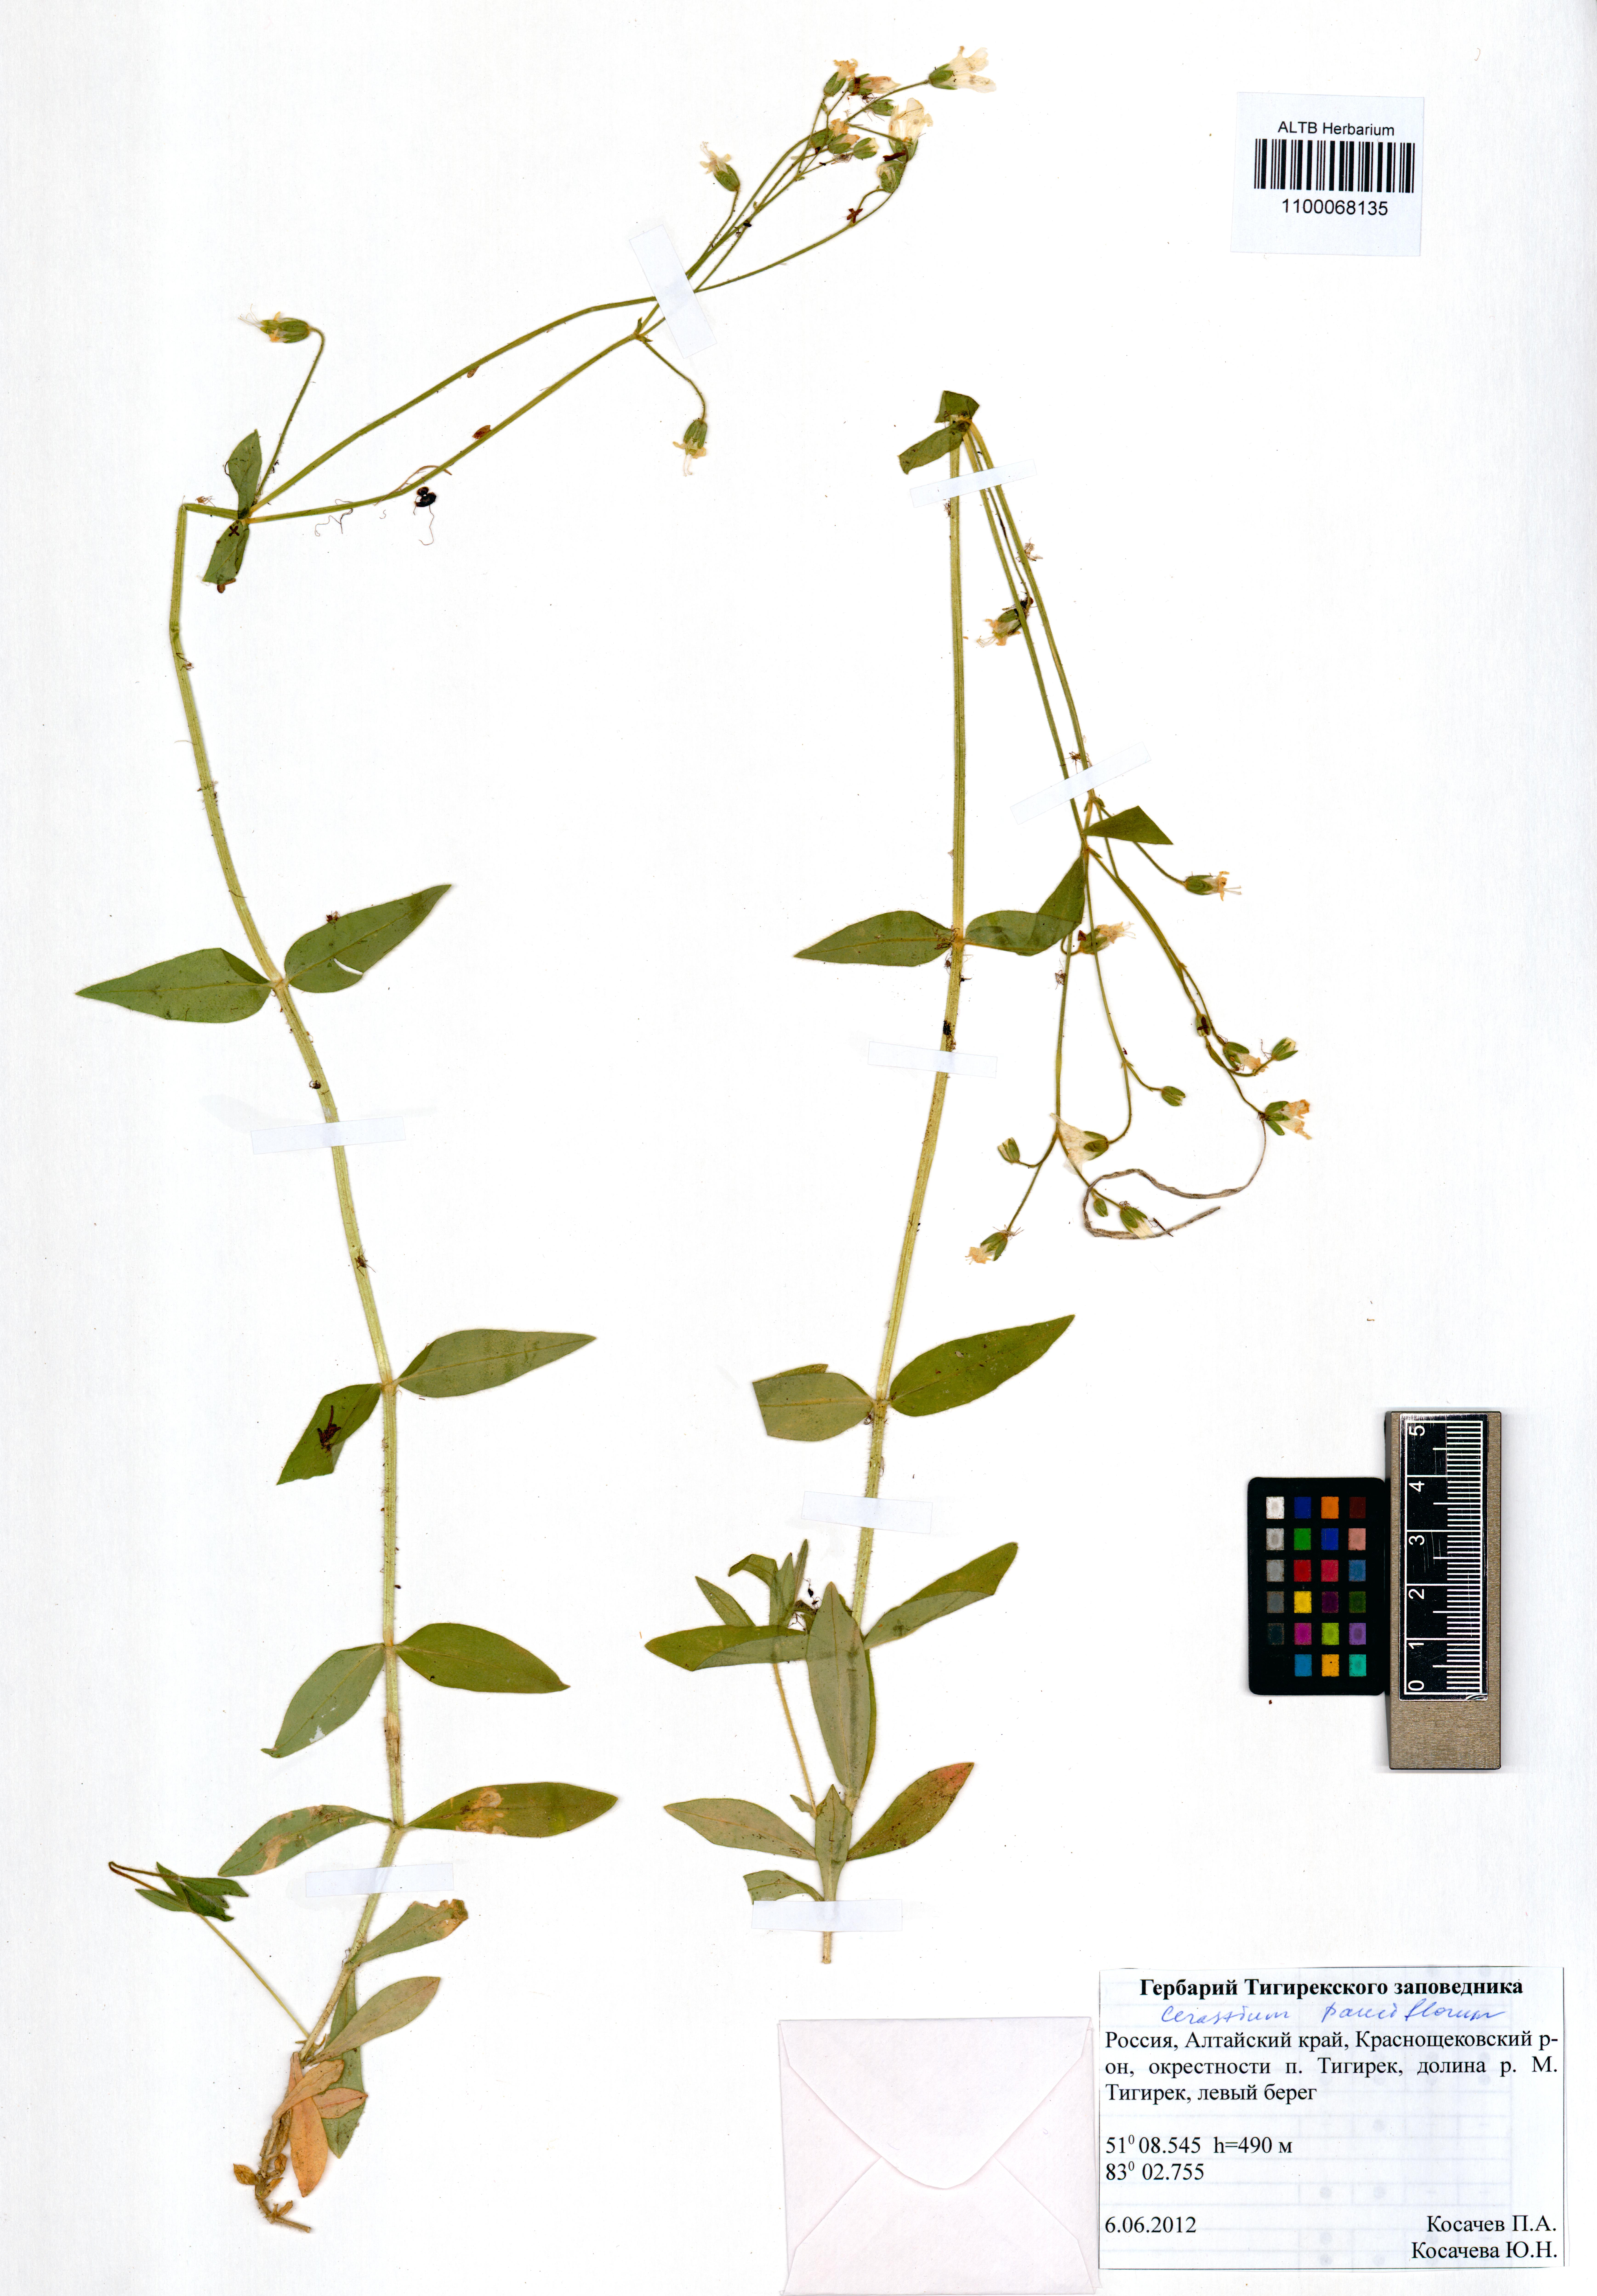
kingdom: Plantae
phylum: Tracheophyta
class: Magnoliopsida
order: Caryophyllales
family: Caryophyllaceae
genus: Cerastium
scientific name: Cerastium pauciflorum
